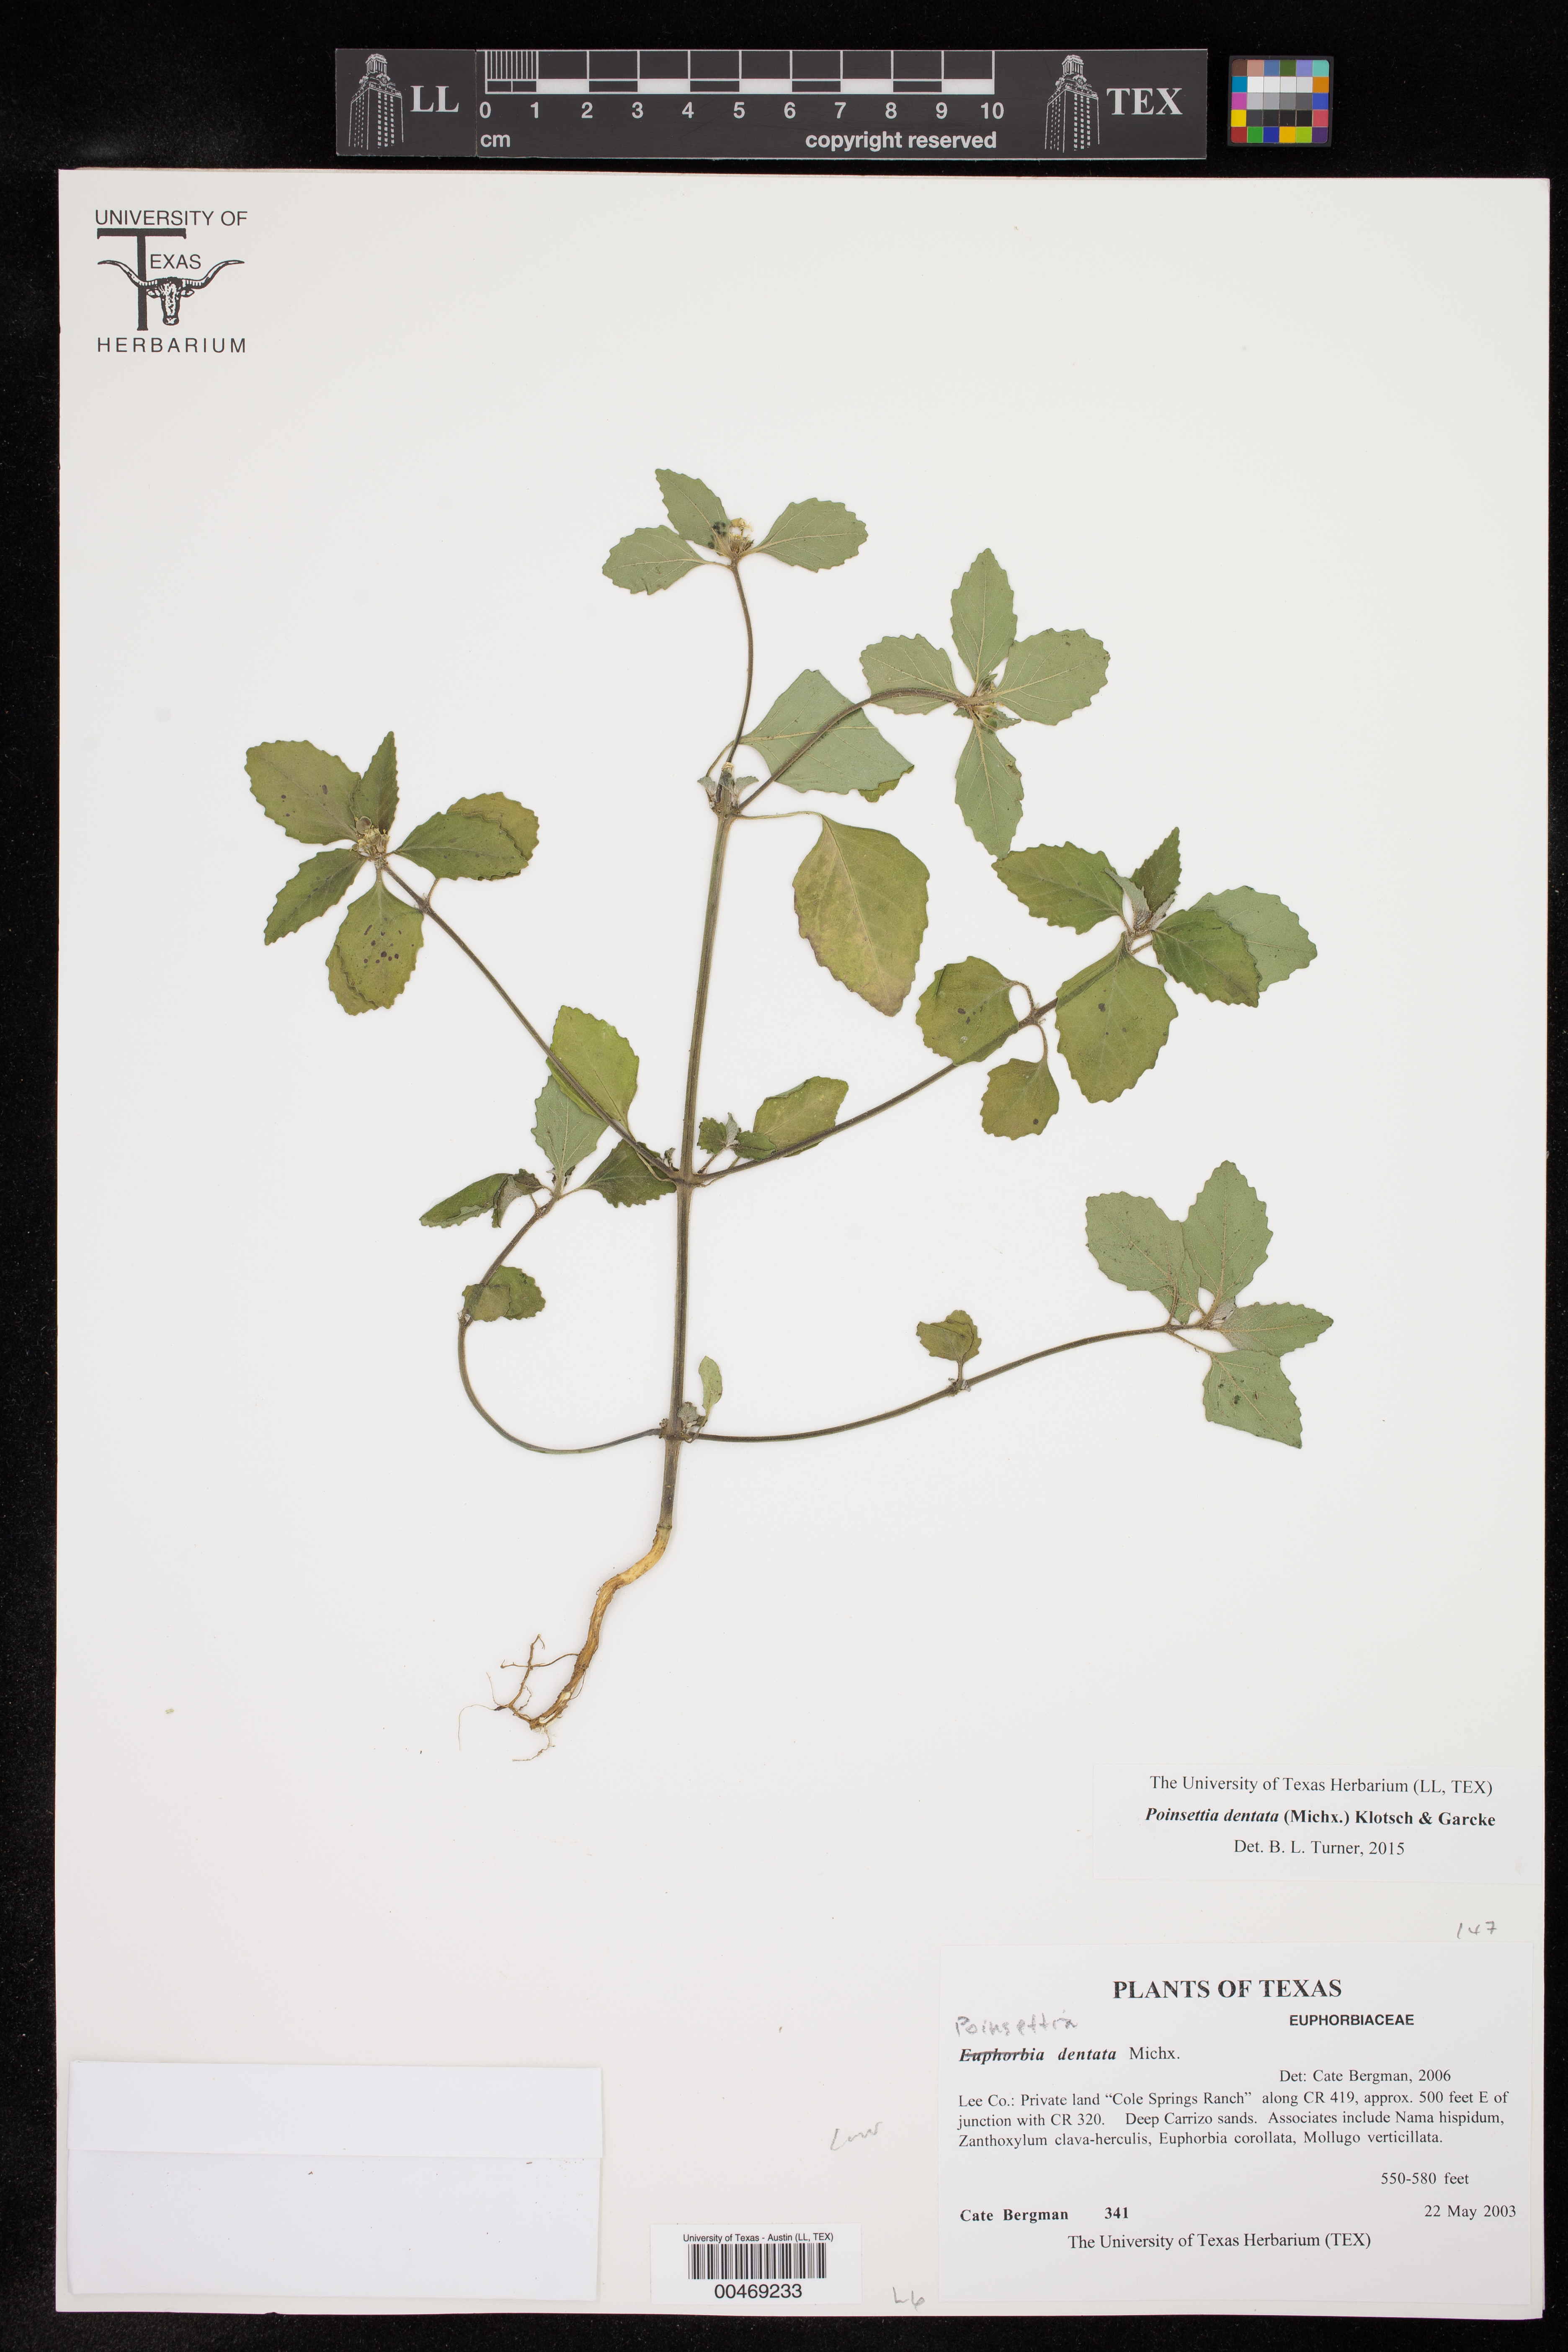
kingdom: Plantae
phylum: Tracheophyta
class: Magnoliopsida
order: Malpighiales
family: Euphorbiaceae
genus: Euphorbia
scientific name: Euphorbia dentata
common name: Dentate spurge
